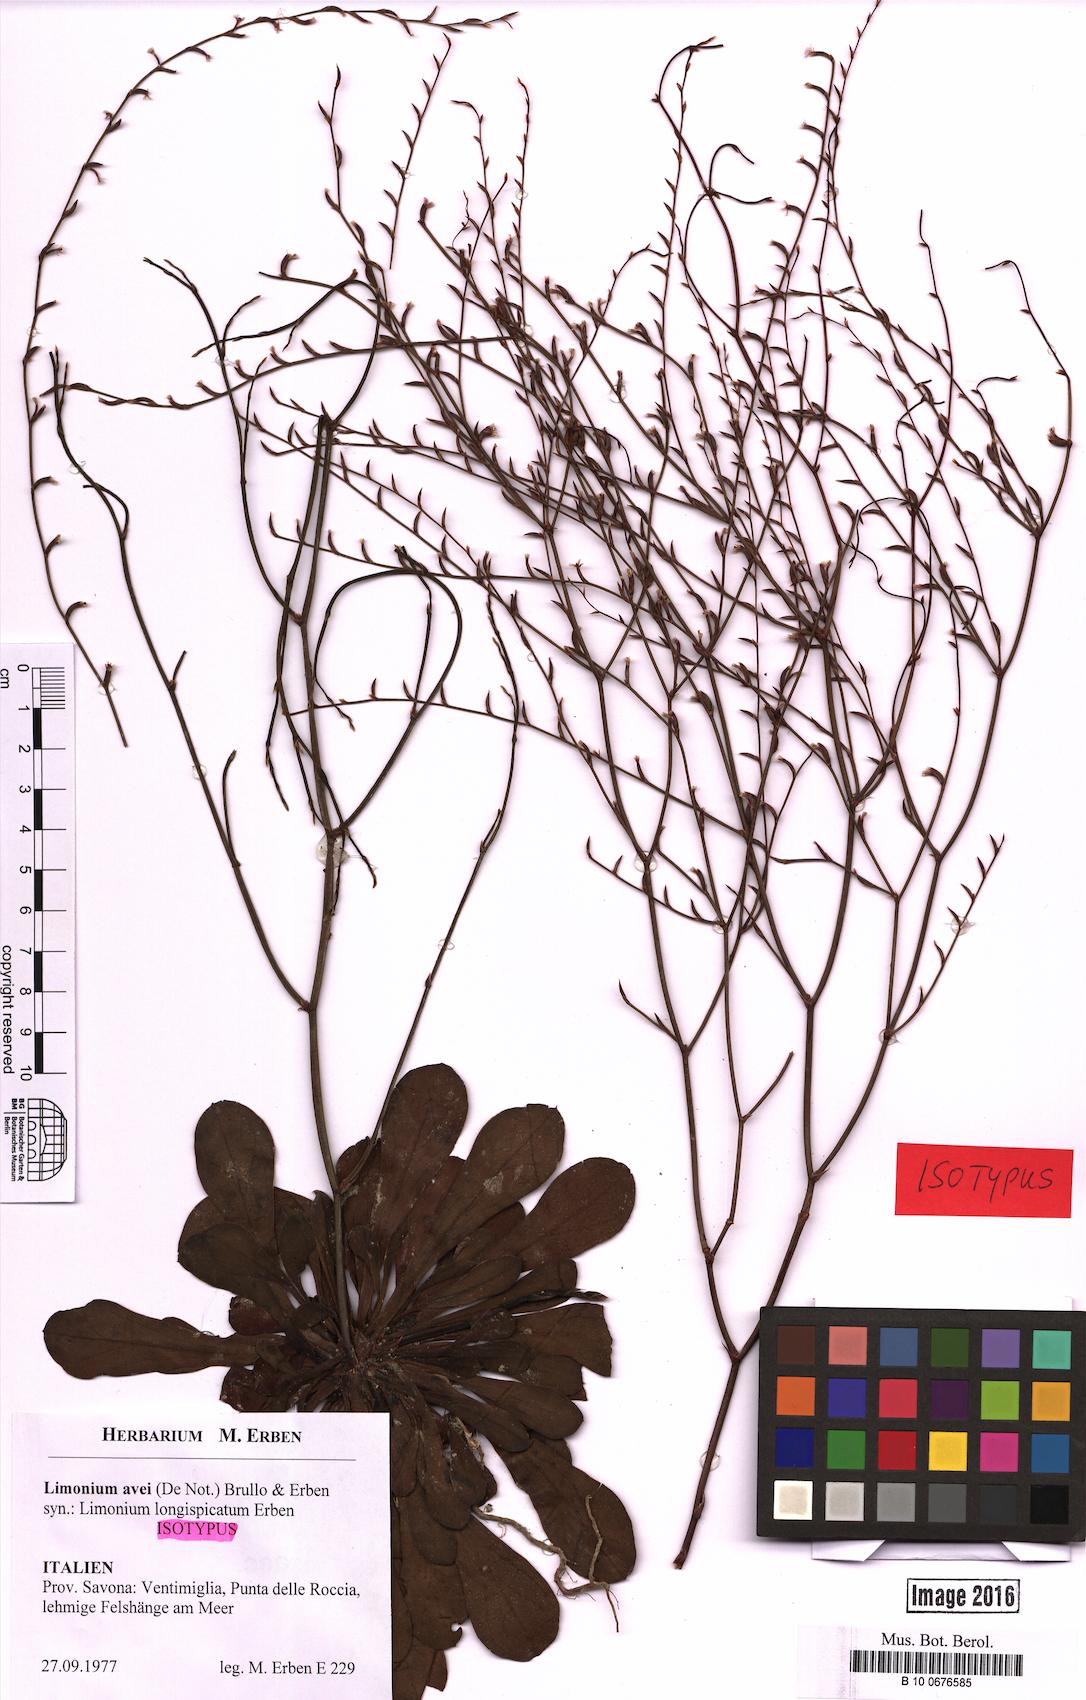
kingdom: Plantae
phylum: Tracheophyta
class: Magnoliopsida
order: Caryophyllales
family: Plumbaginaceae
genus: Limonium
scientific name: Limonium avei
